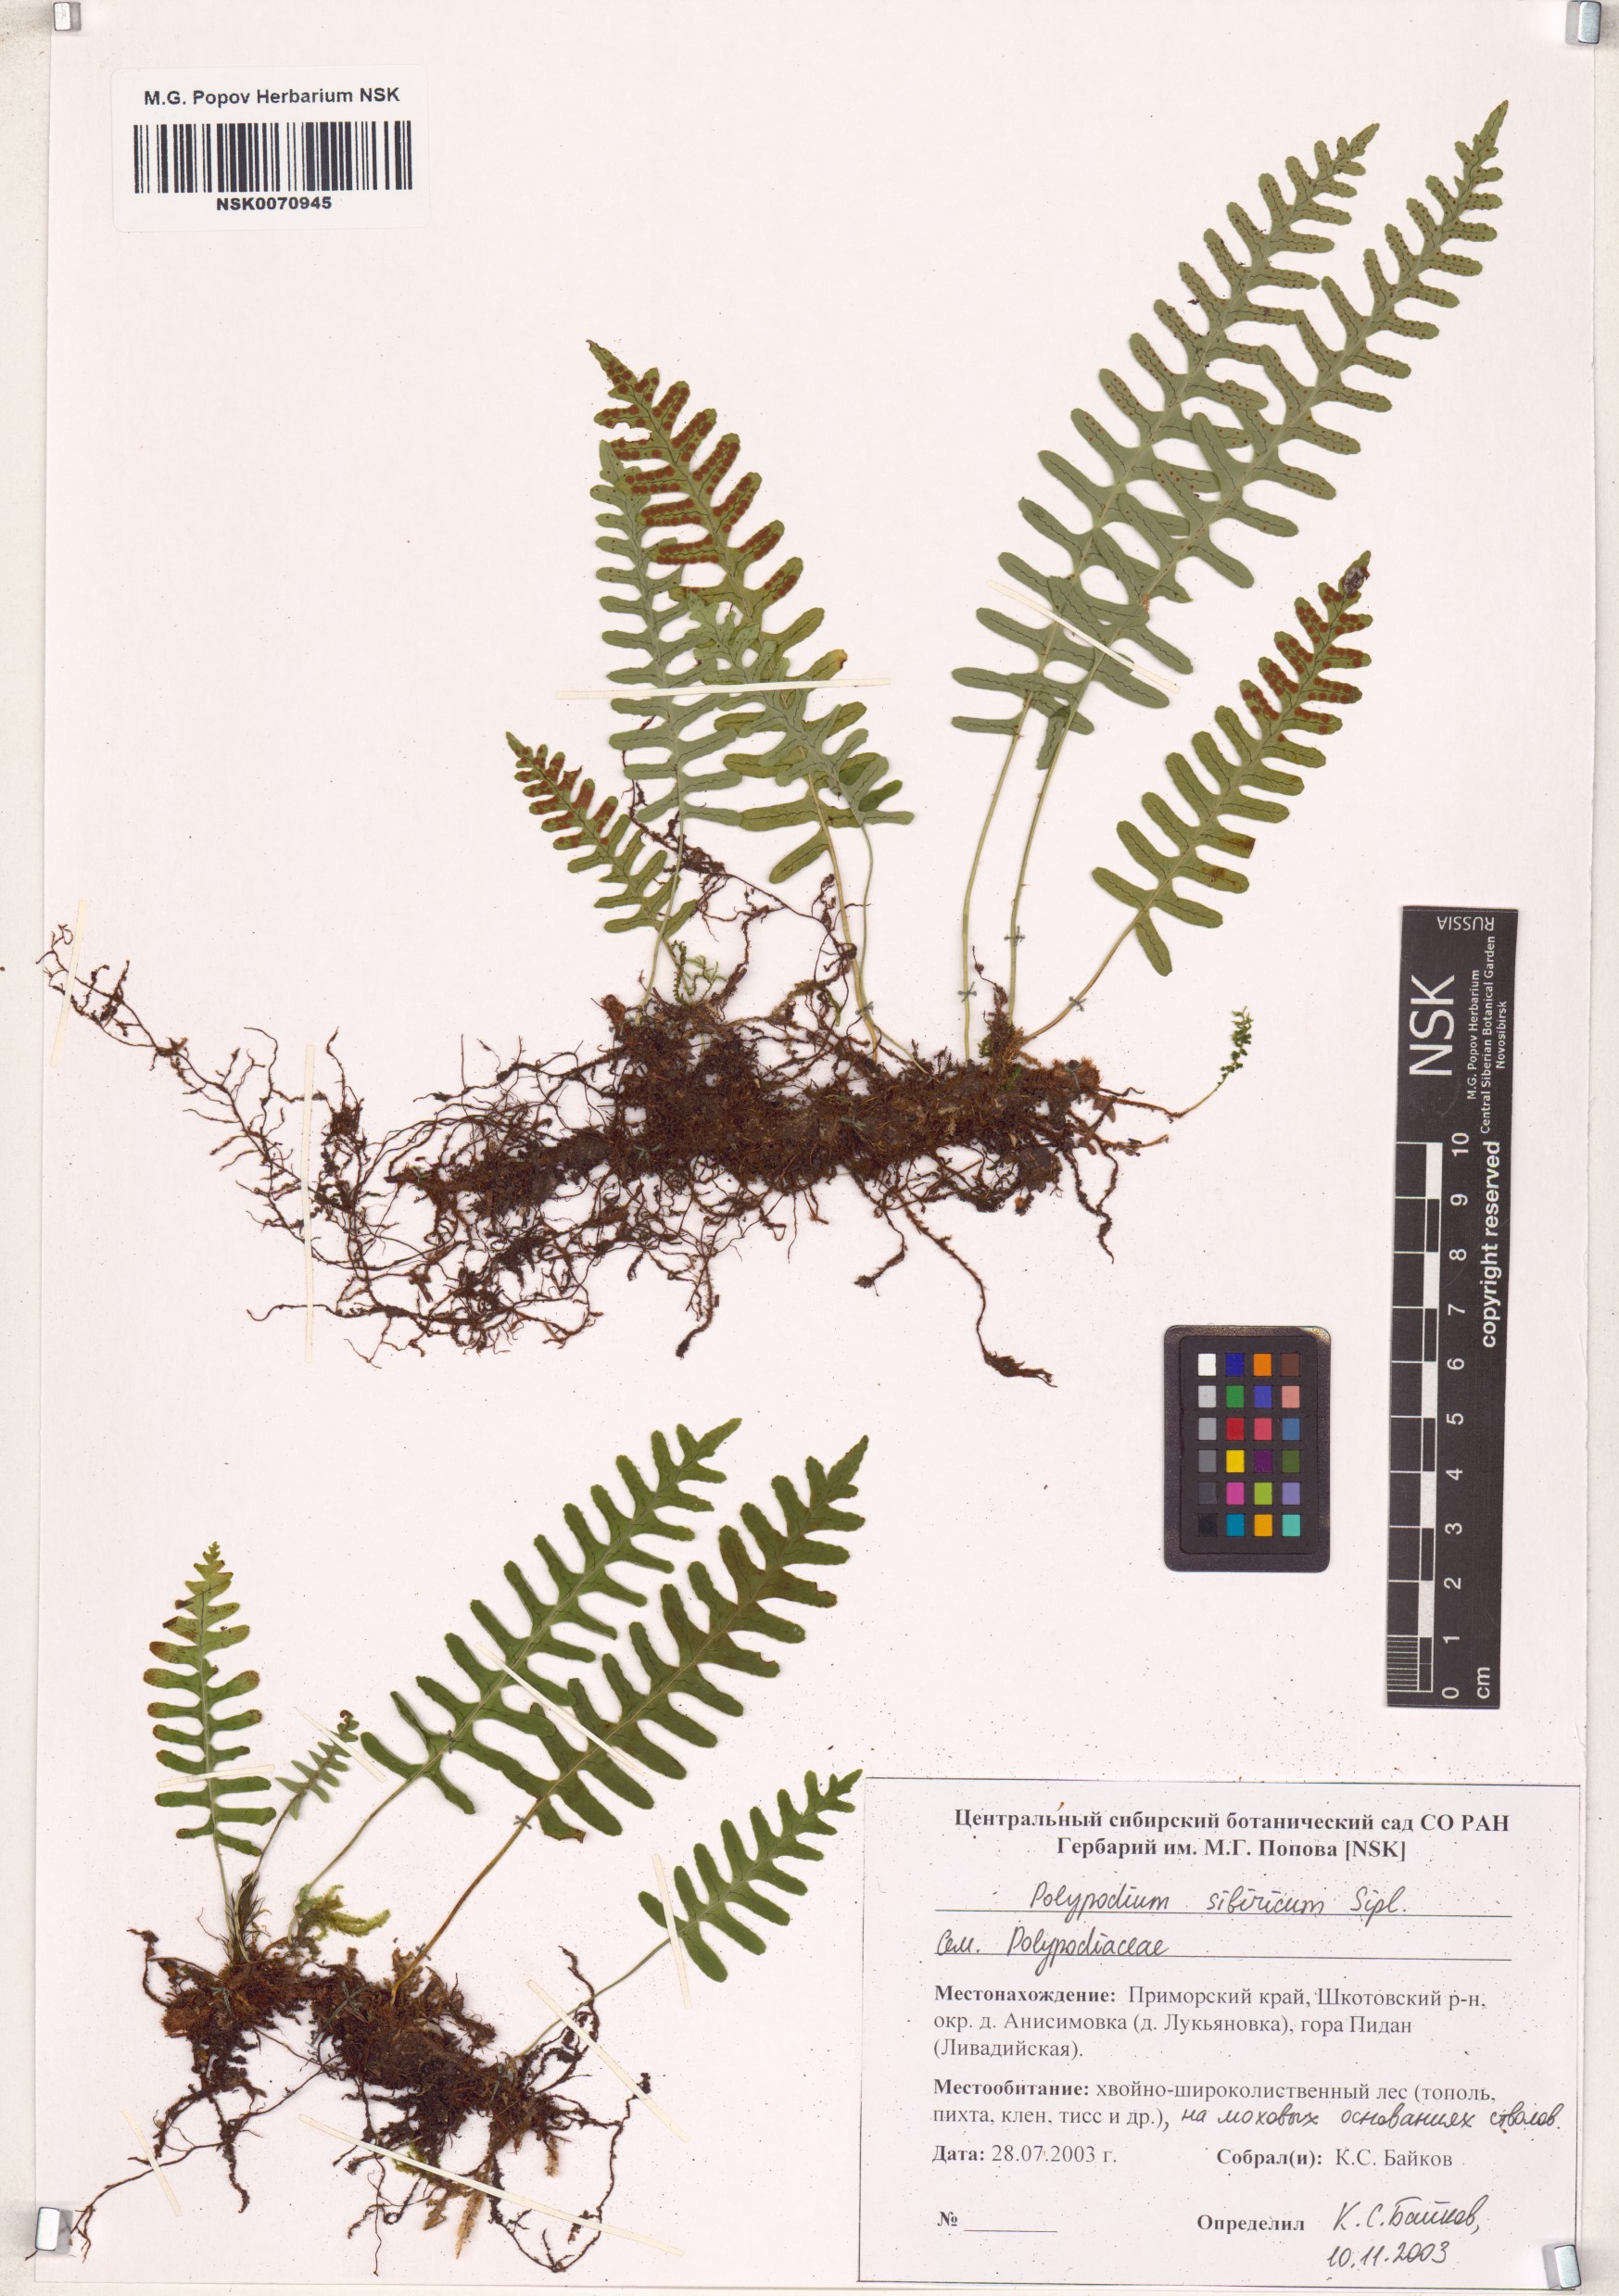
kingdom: Plantae
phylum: Tracheophyta
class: Polypodiopsida
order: Polypodiales
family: Polypodiaceae
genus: Polypodium
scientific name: Polypodium sibiricum
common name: Siberian polypody
